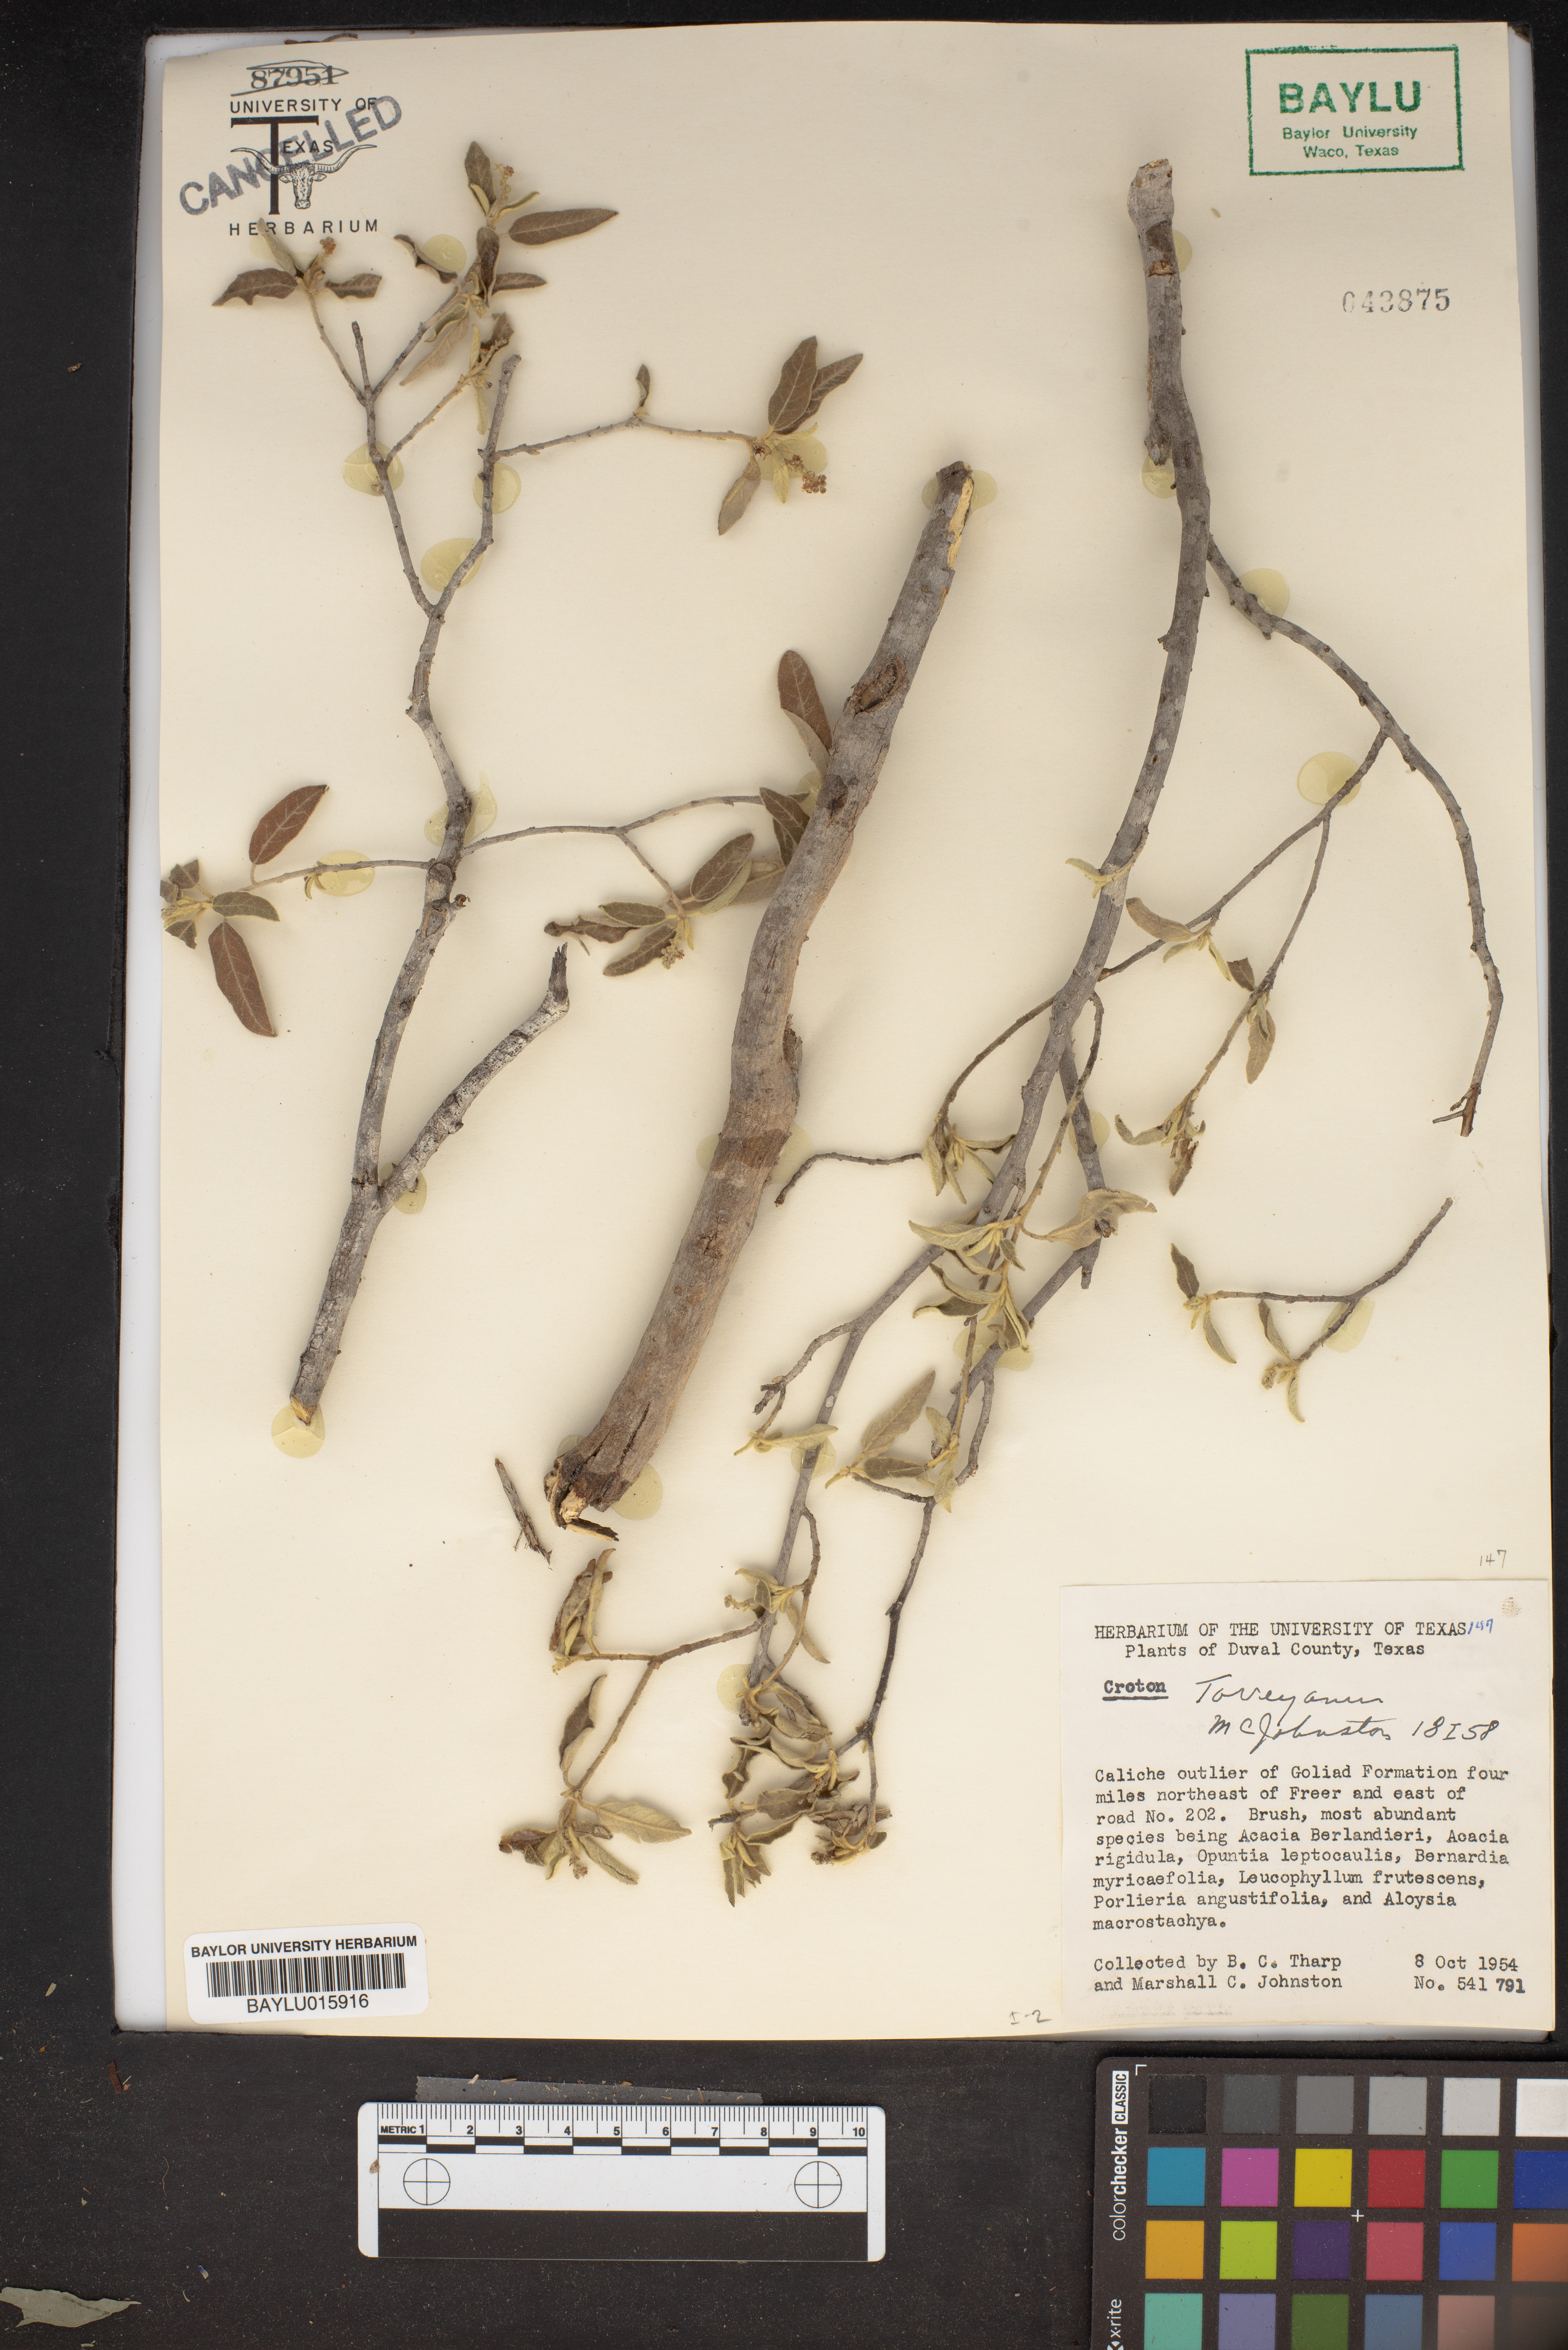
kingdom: Plantae
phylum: Tracheophyta
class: Magnoliopsida
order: Malpighiales
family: Euphorbiaceae
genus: Croton
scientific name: Croton incanus
